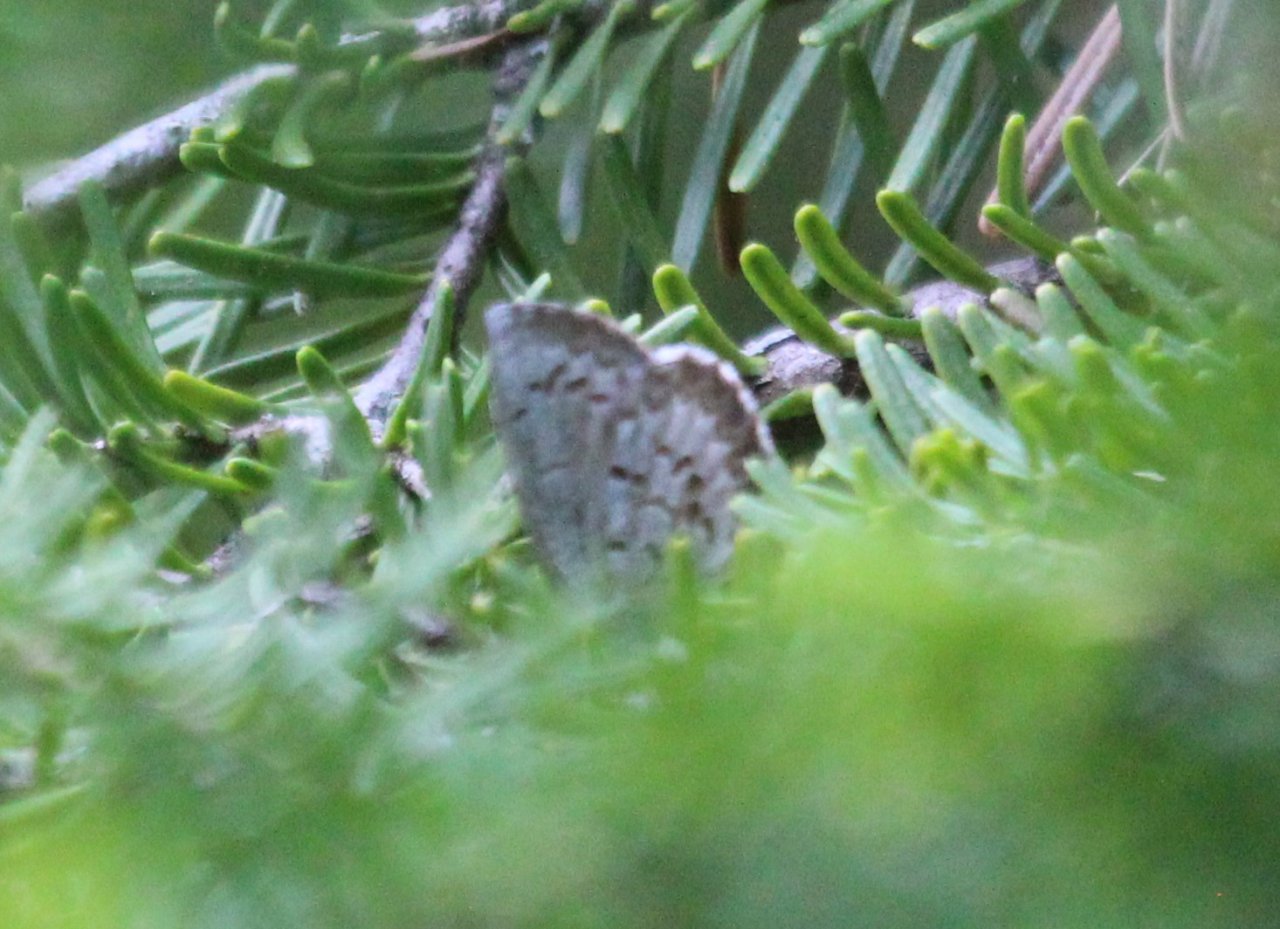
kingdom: Animalia
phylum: Arthropoda
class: Insecta
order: Lepidoptera
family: Lycaenidae
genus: Celastrina
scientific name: Celastrina lucia
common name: Northern Spring Azure
